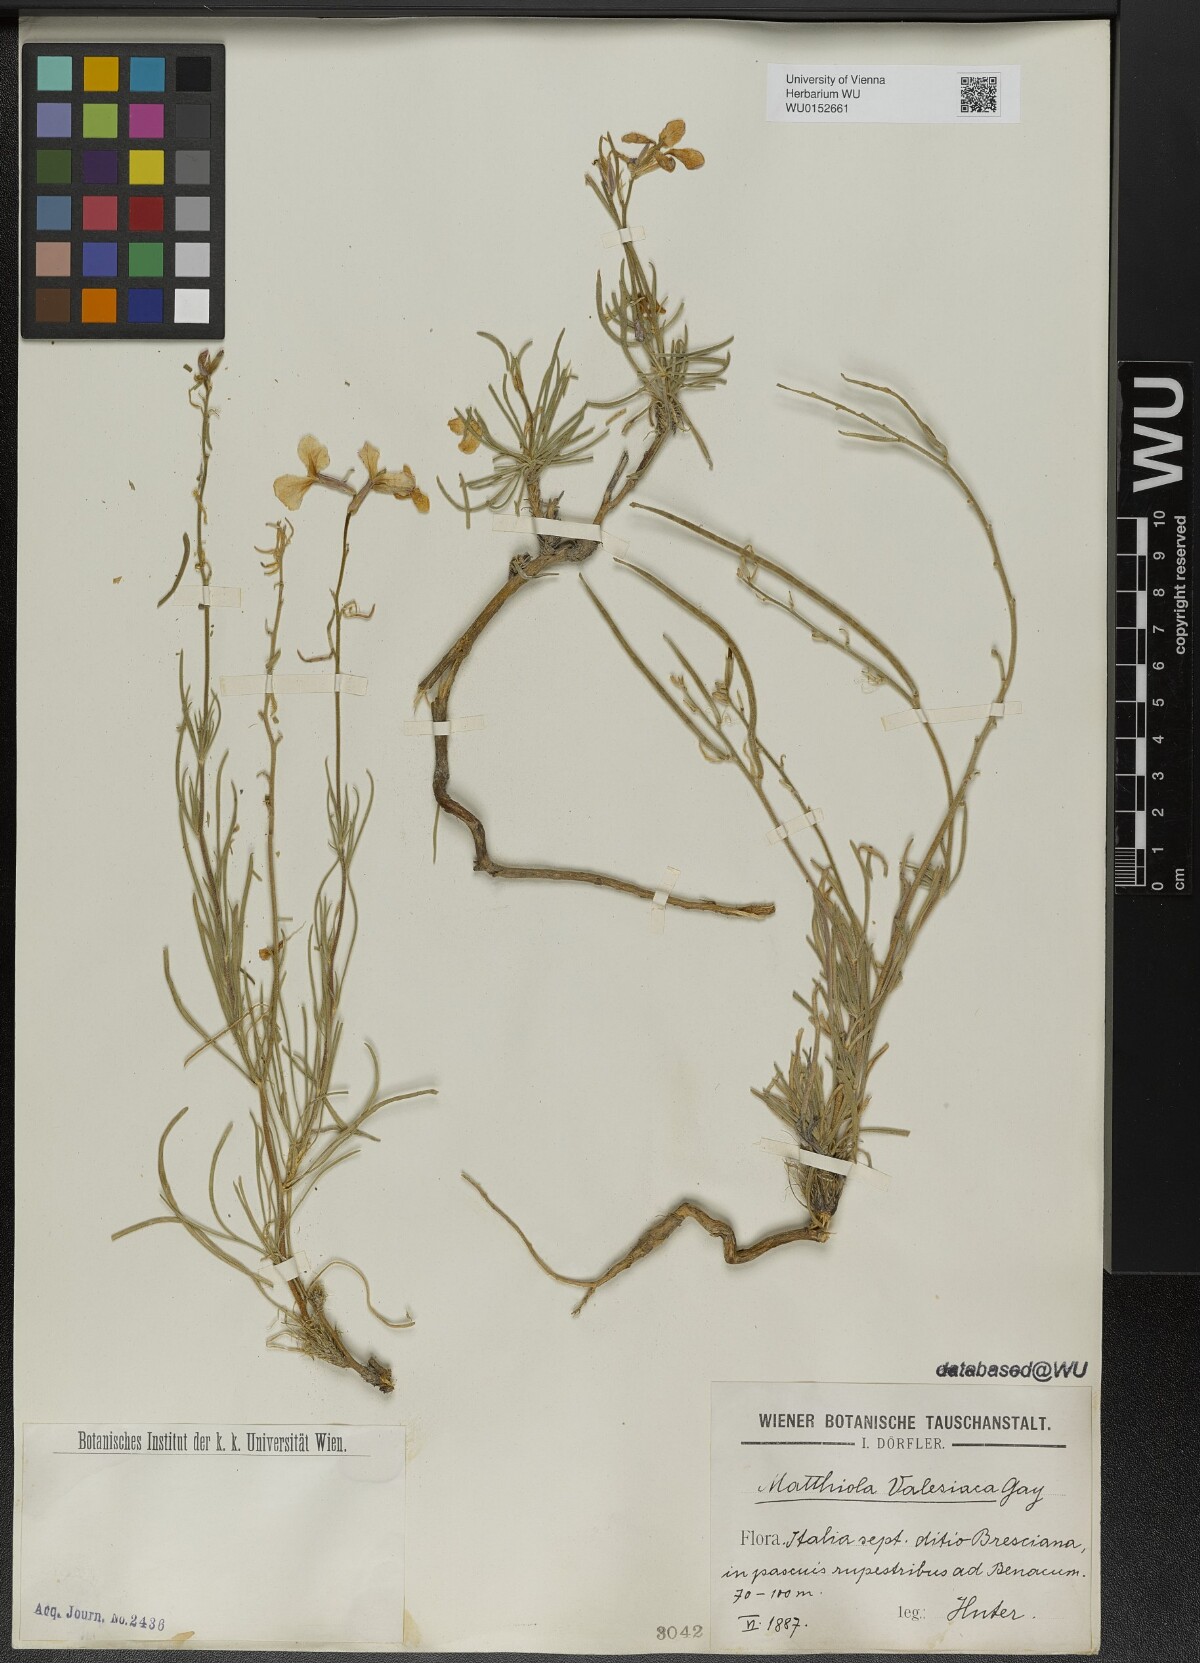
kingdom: Plantae
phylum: Tracheophyta
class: Magnoliopsida
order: Brassicales
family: Brassicaceae
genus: Matthiola
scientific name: Matthiola fruticulosa
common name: Sad stock
